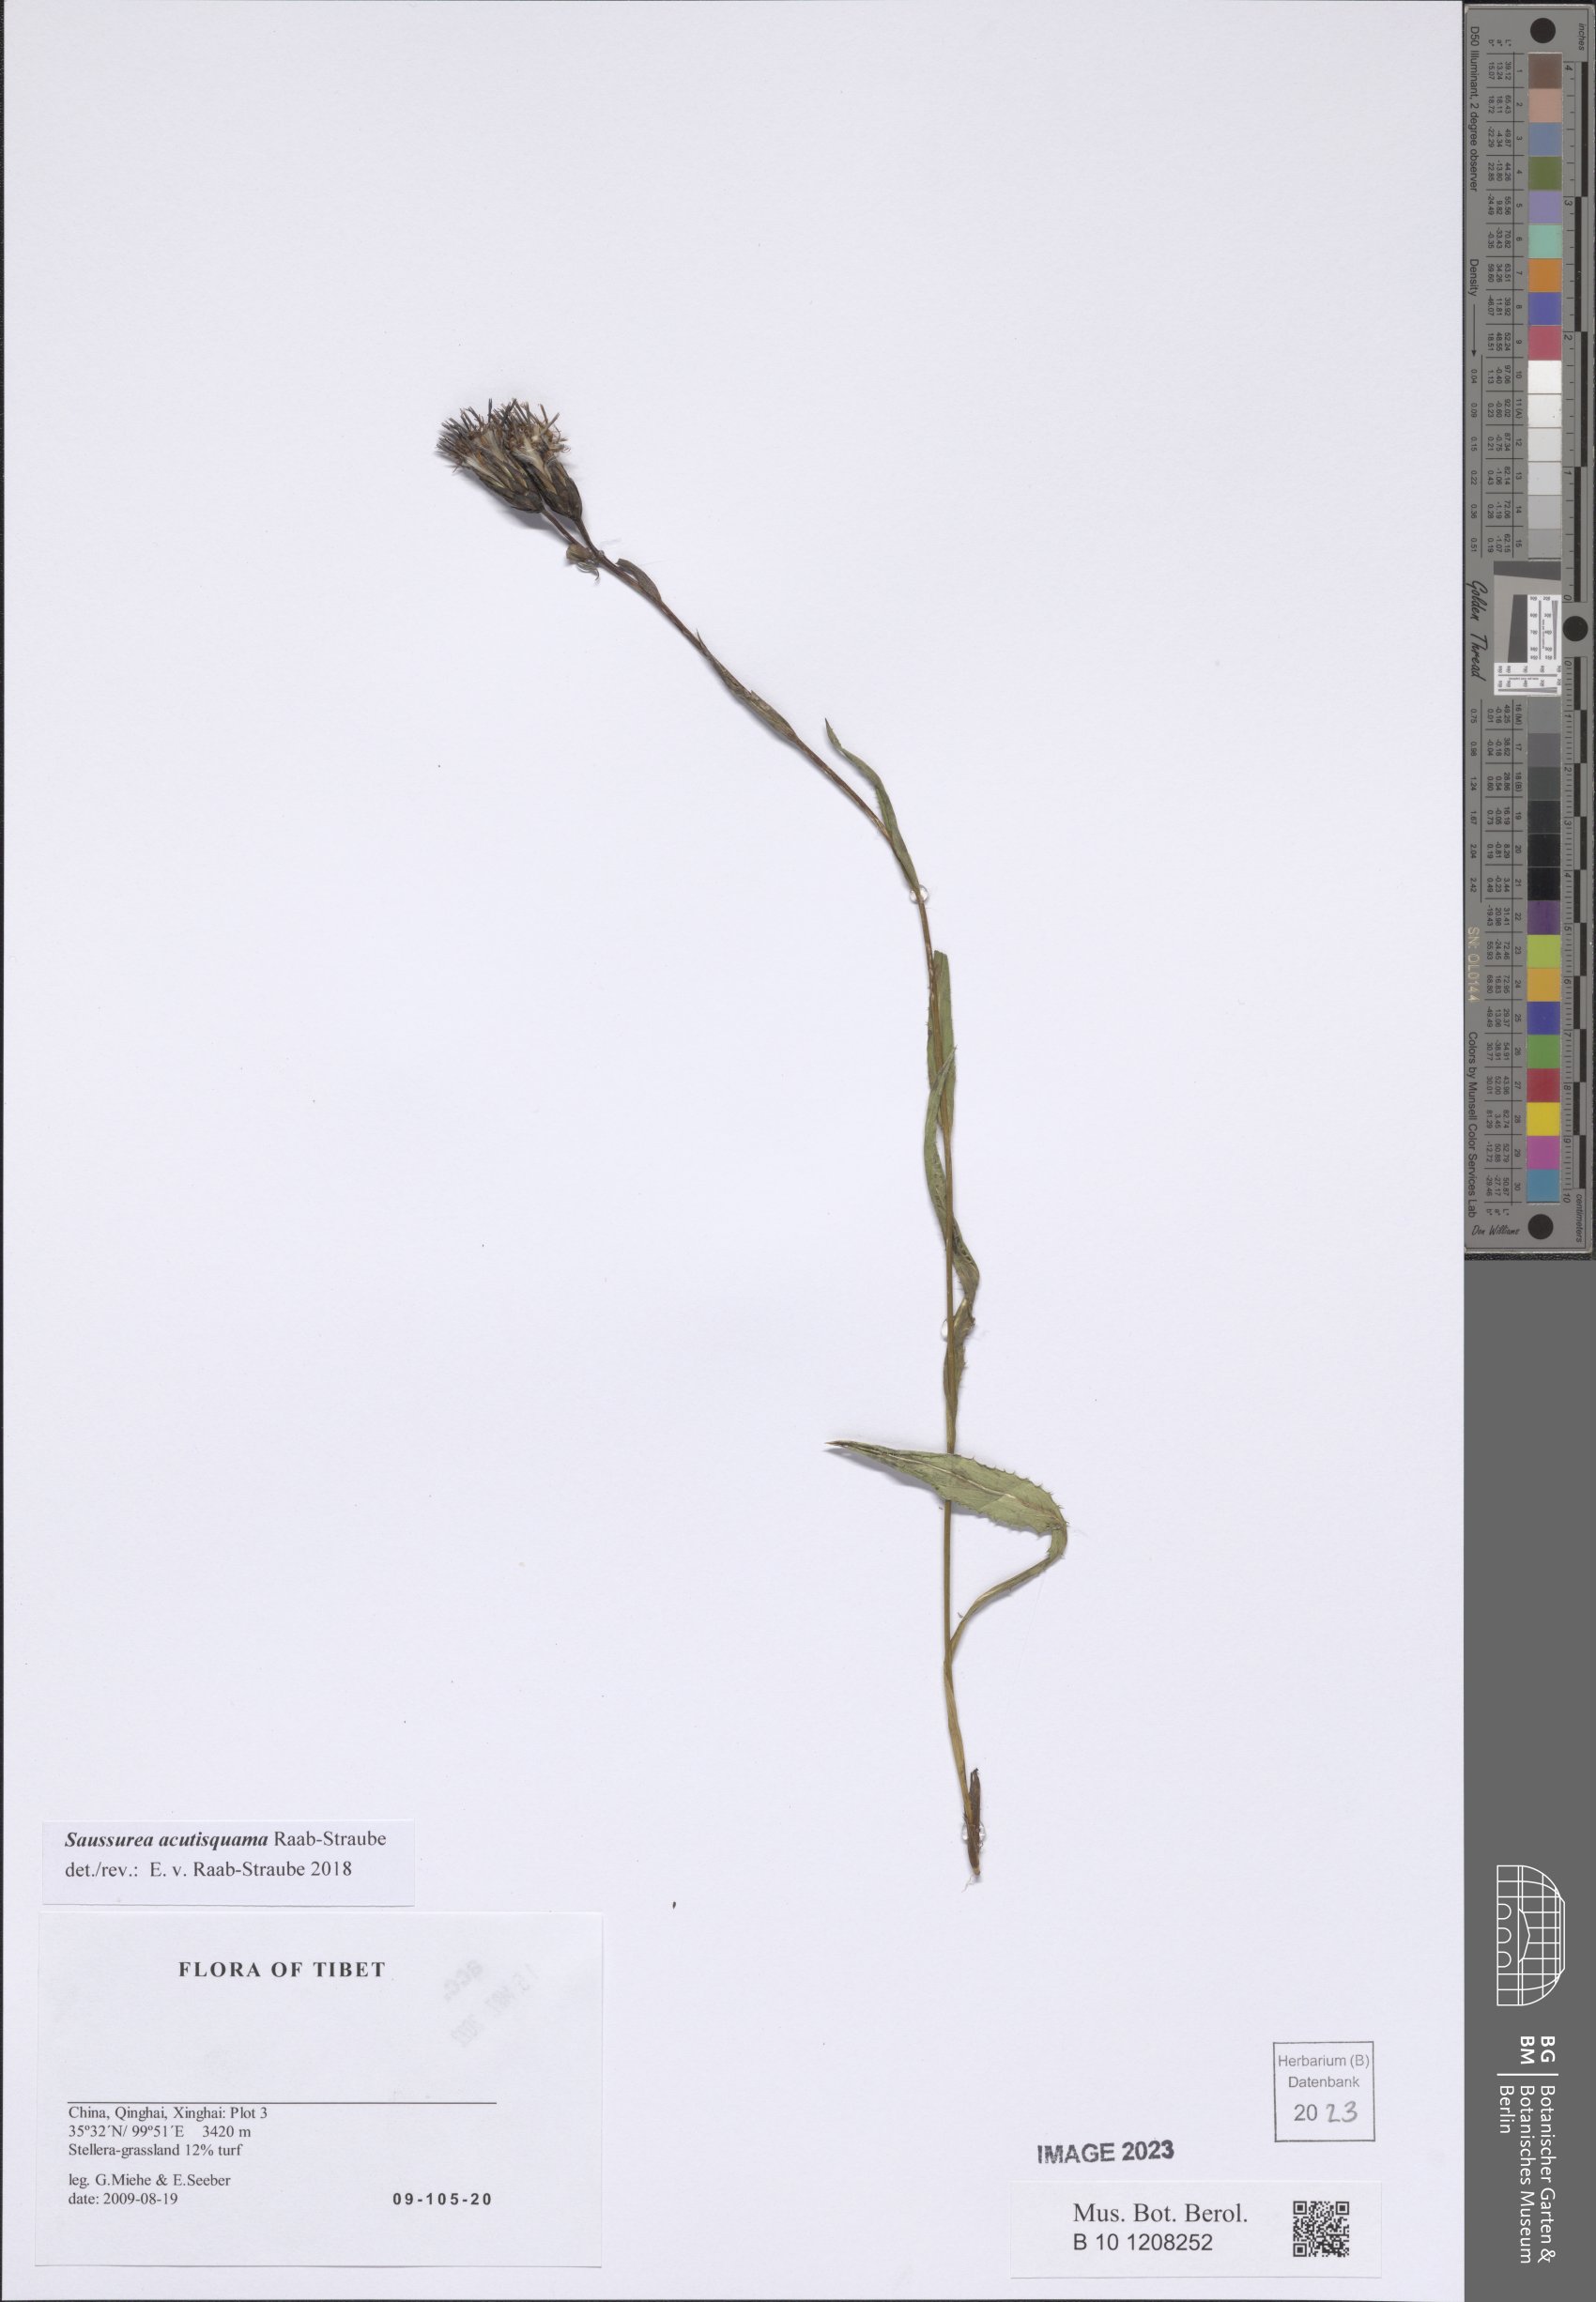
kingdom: Plantae
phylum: Tracheophyta
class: Magnoliopsida
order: Asterales
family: Asteraceae
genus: Saussurea
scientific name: Saussurea acutisquama
